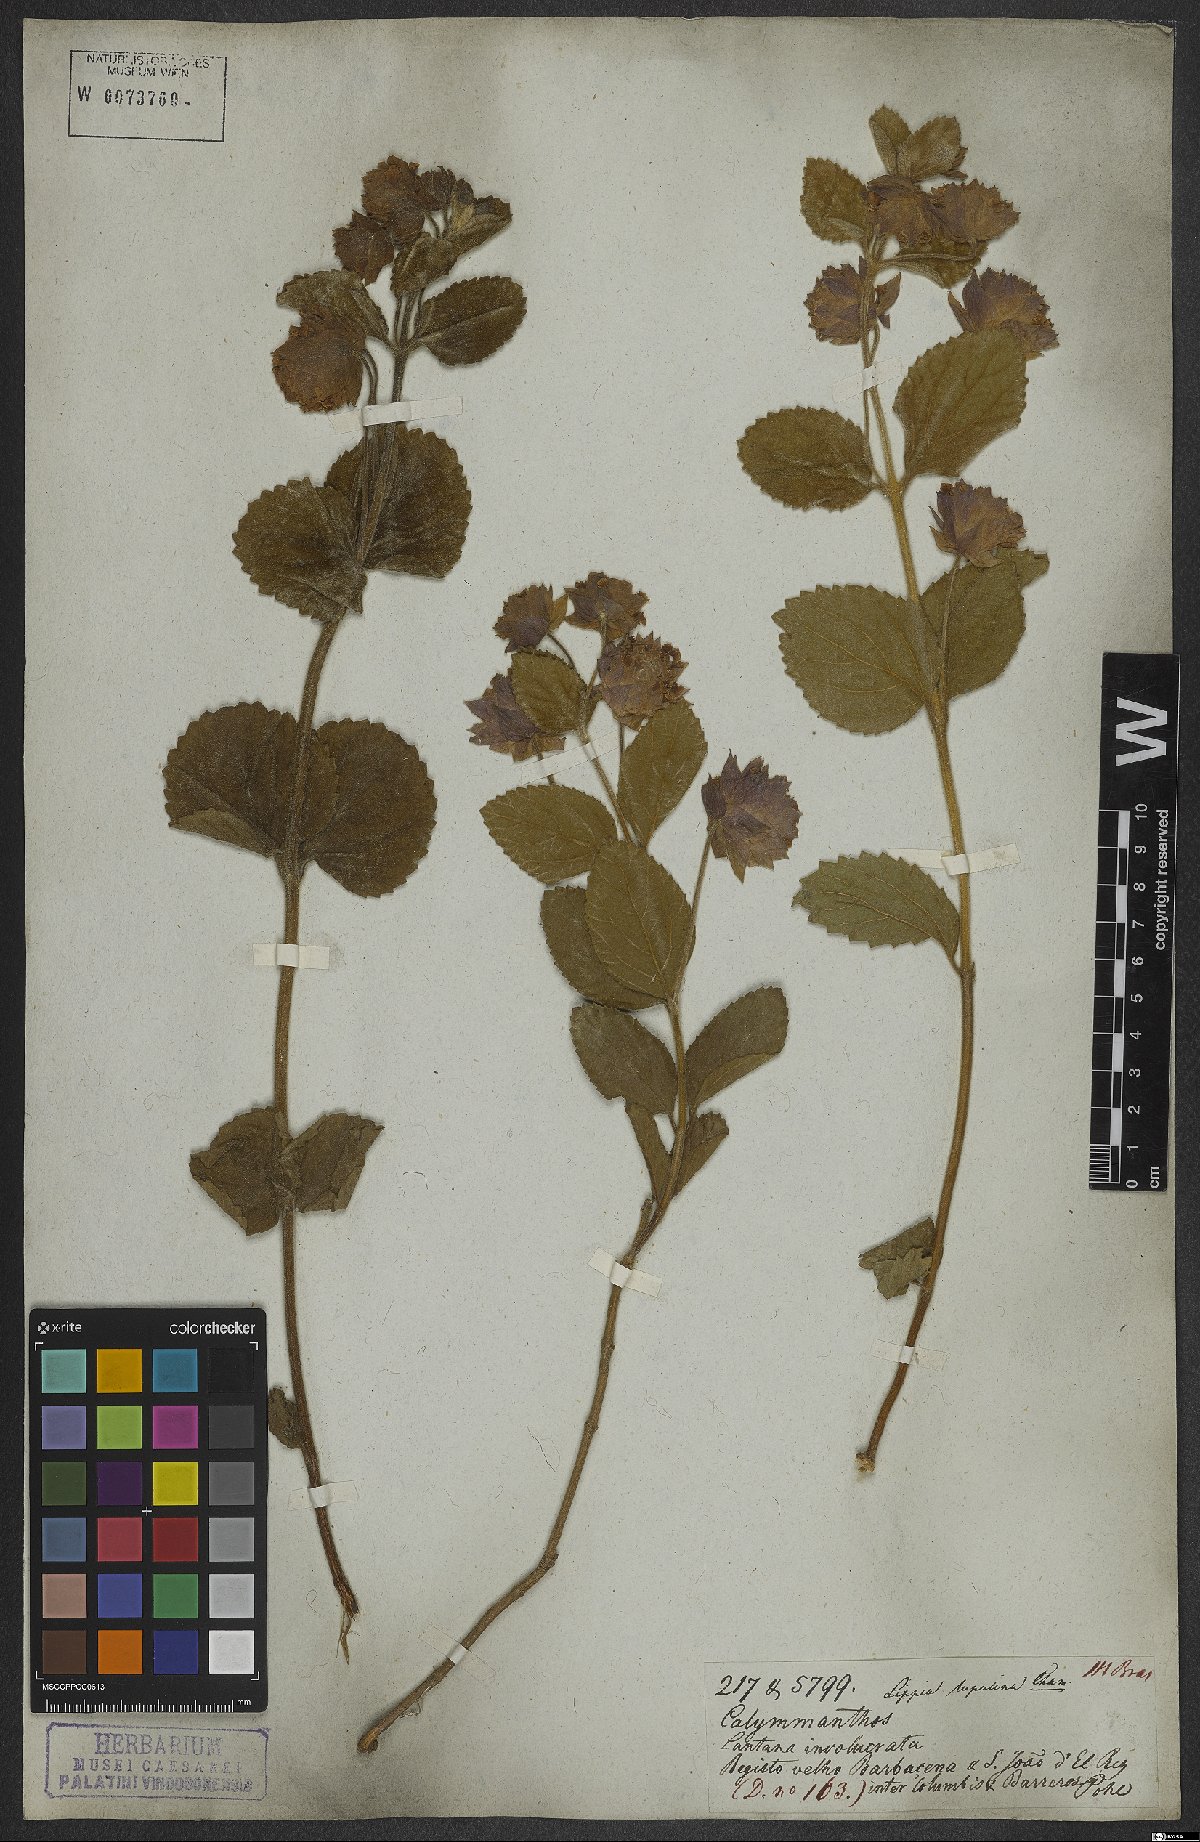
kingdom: Plantae
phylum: Tracheophyta
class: Magnoliopsida
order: Lamiales
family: Verbenaceae
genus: Lippia
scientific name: Lippia lupulina
